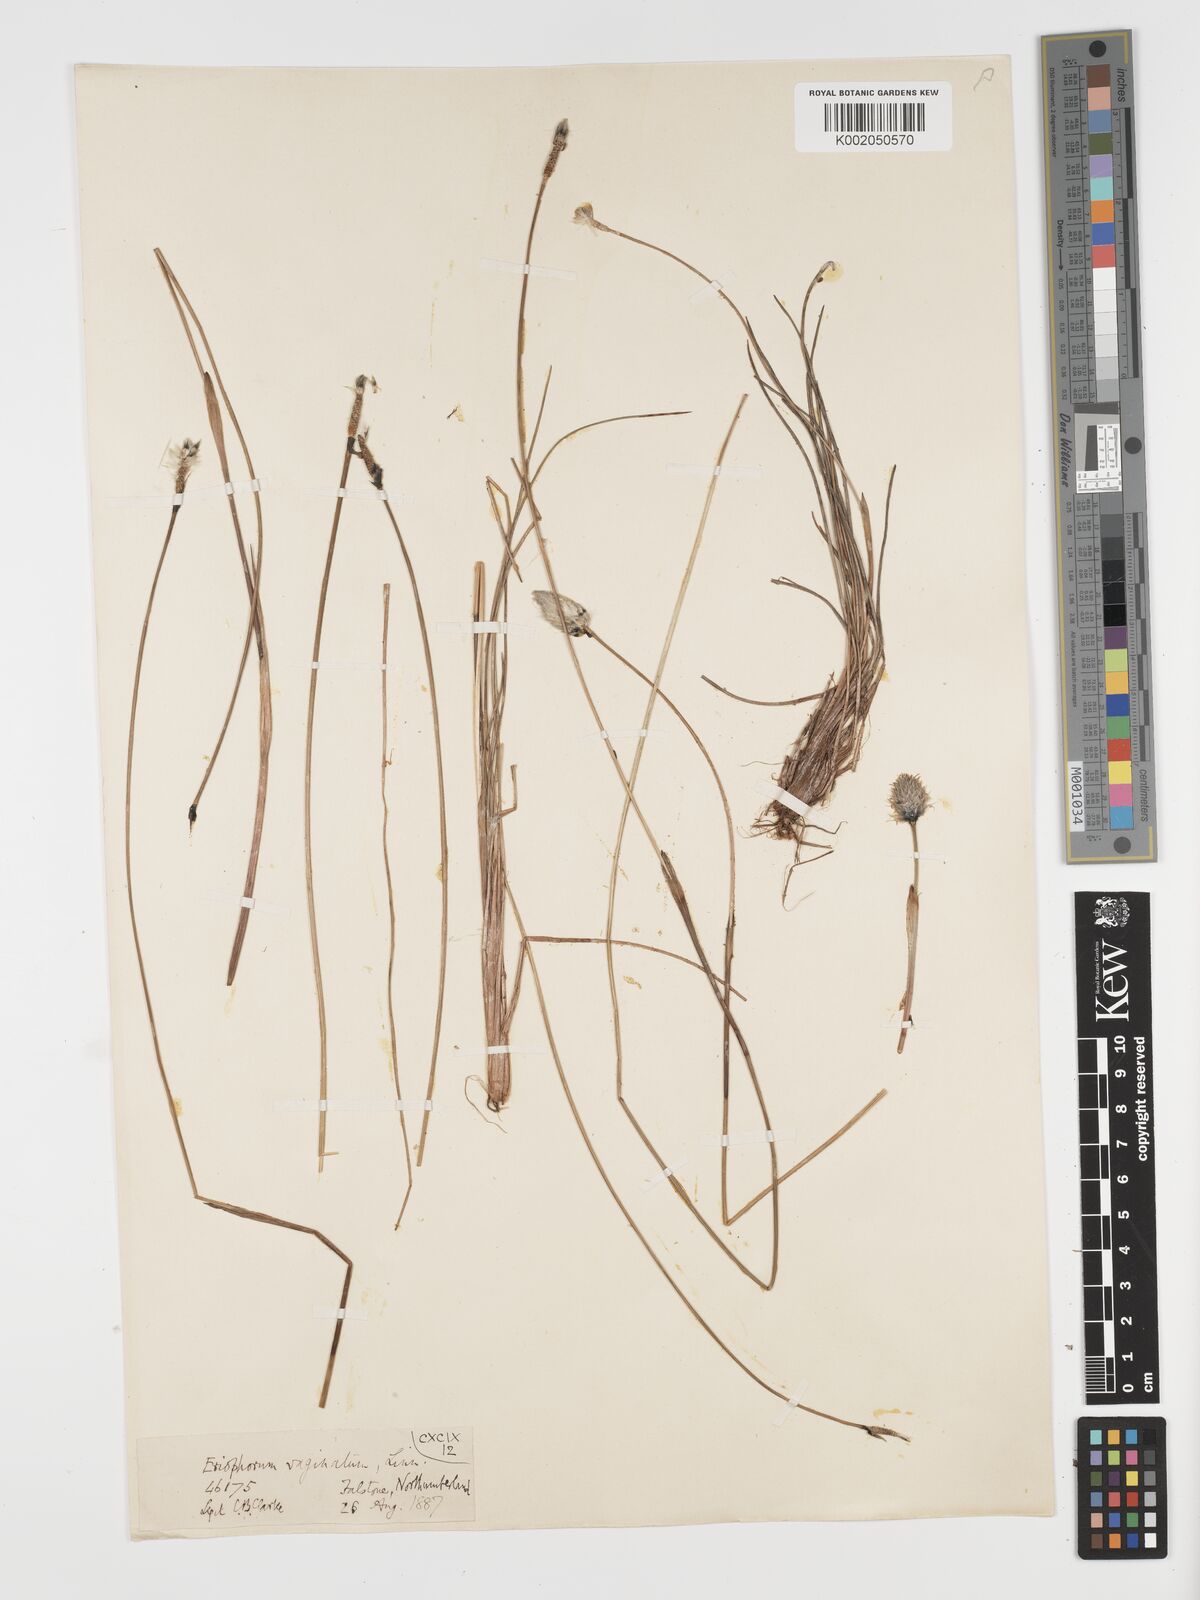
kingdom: Plantae
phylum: Tracheophyta
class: Liliopsida
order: Poales
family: Cyperaceae
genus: Eriophorum
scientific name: Eriophorum vaginatum
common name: Hare's-tail cottongrass
